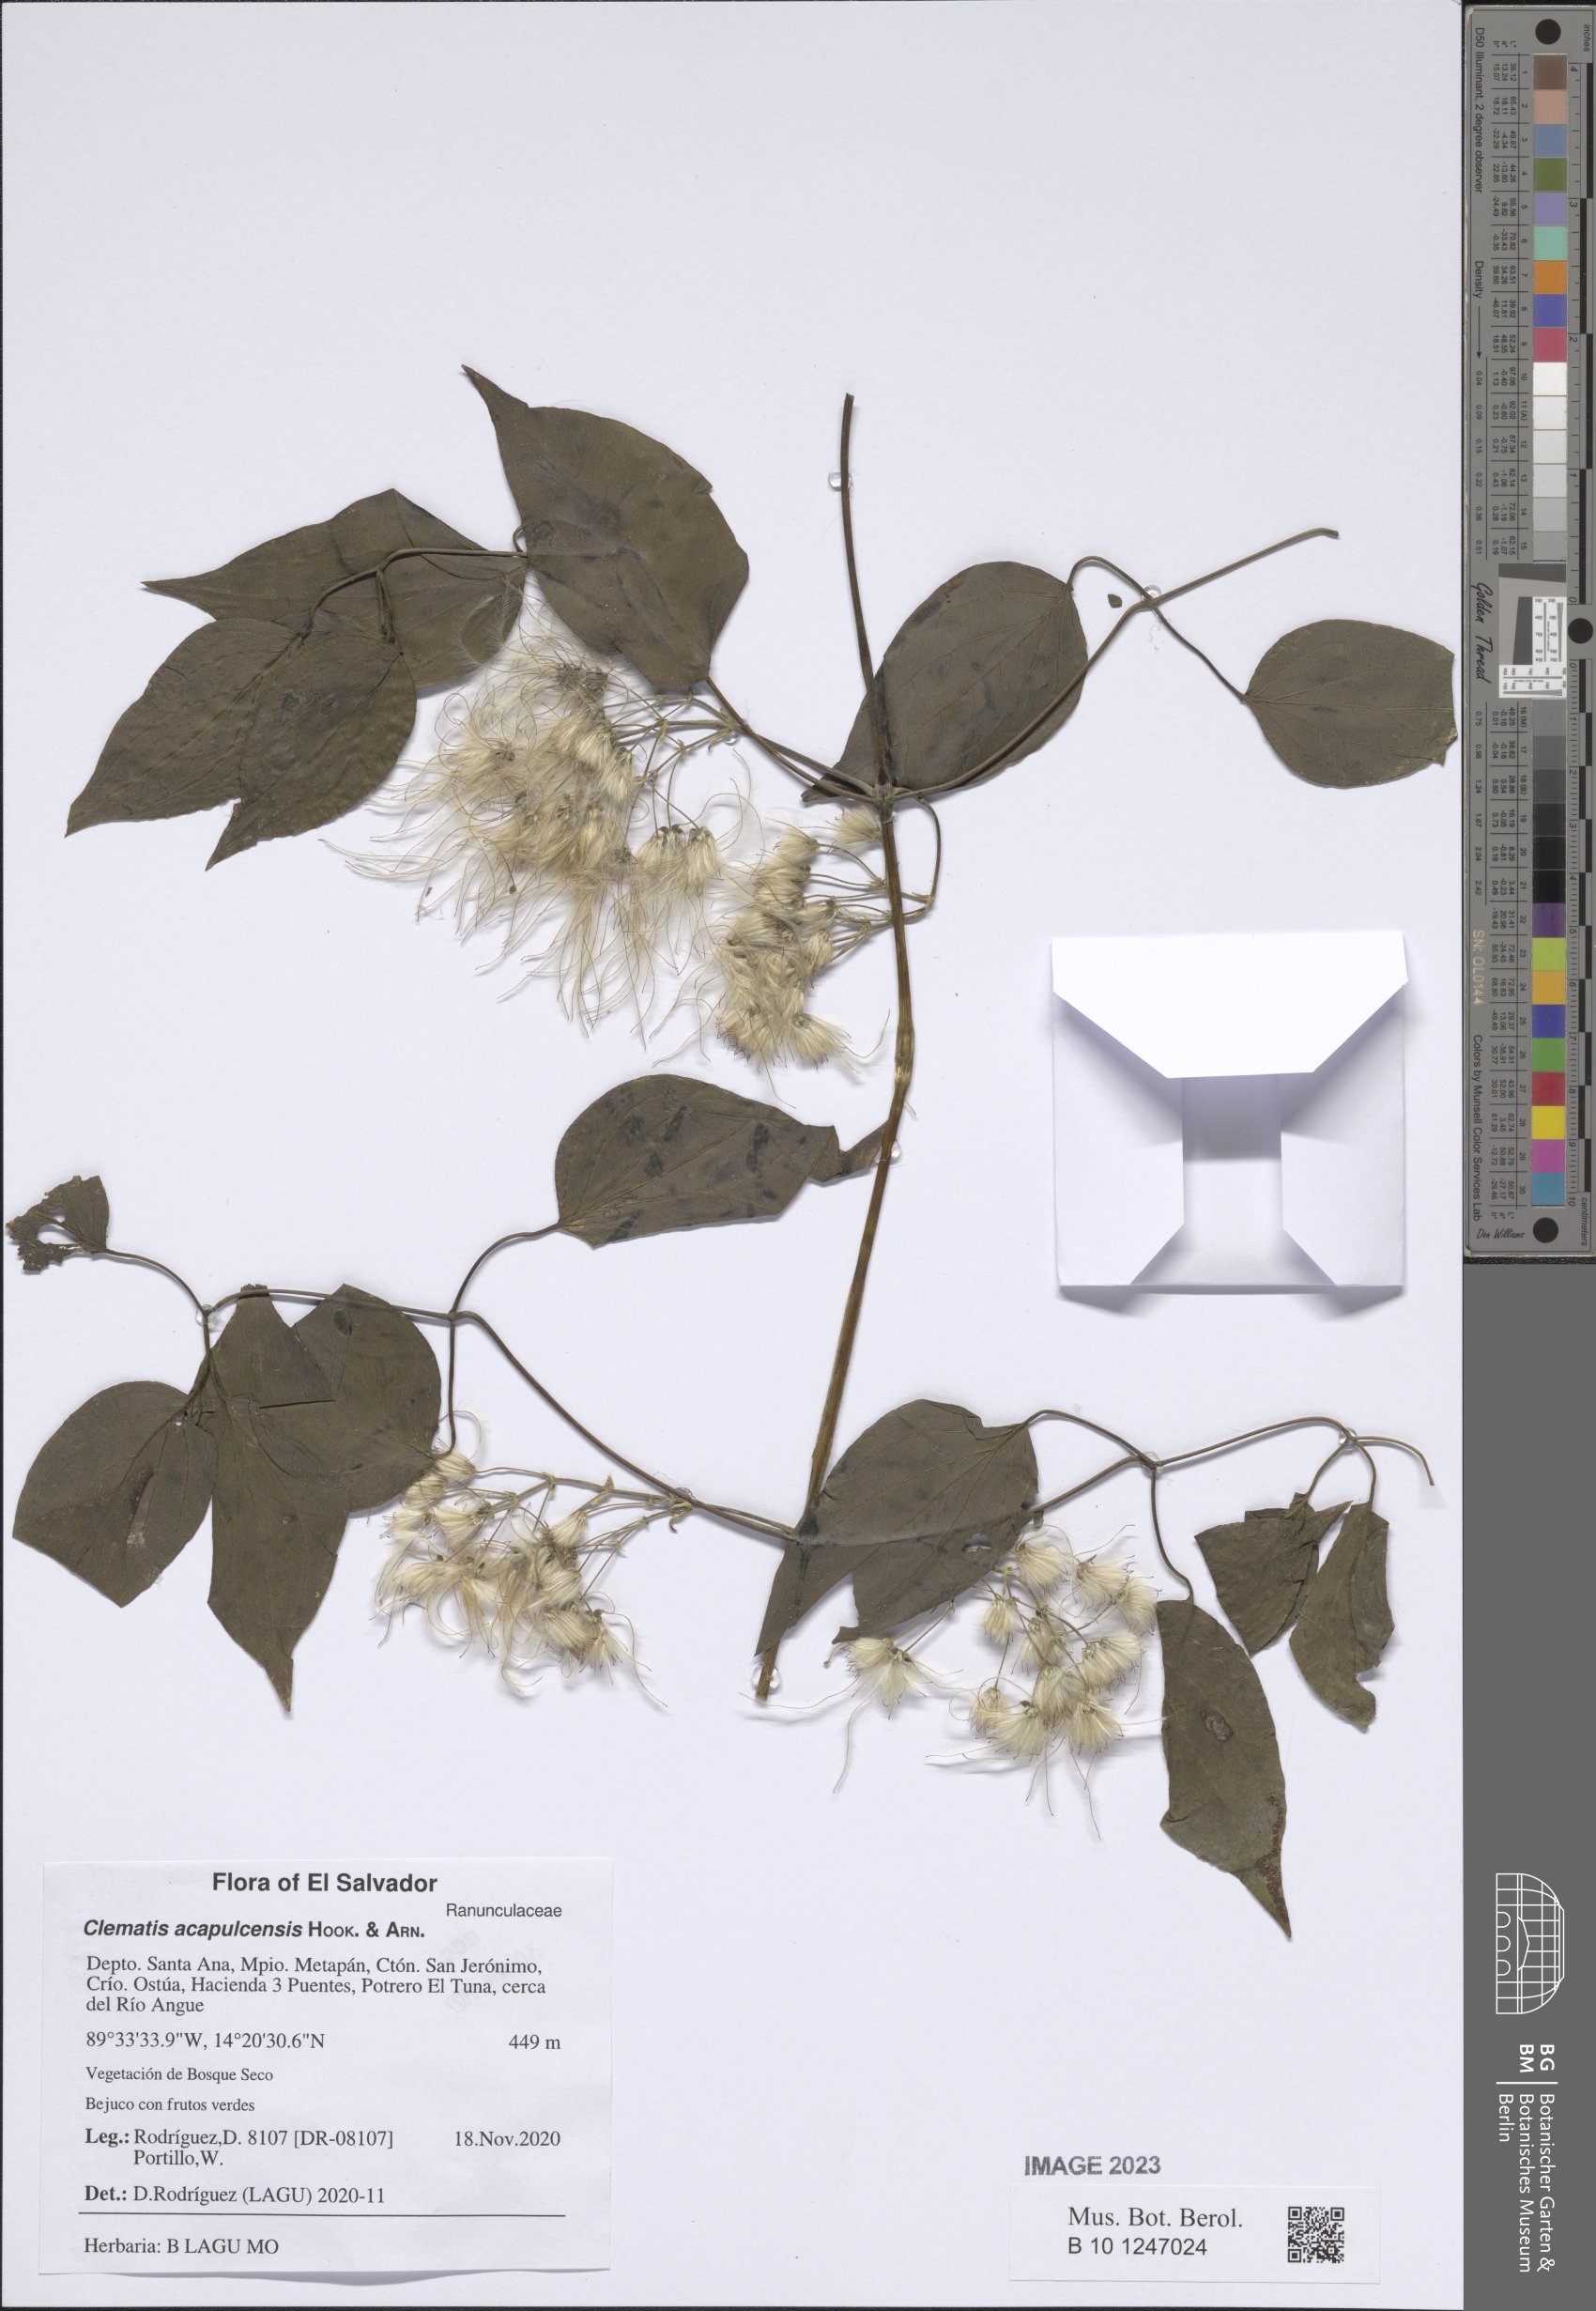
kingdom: Plantae
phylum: Tracheophyta
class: Magnoliopsida
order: Ranunculales
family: Ranunculaceae
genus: Clematis
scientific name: Clematis acapulcensis
